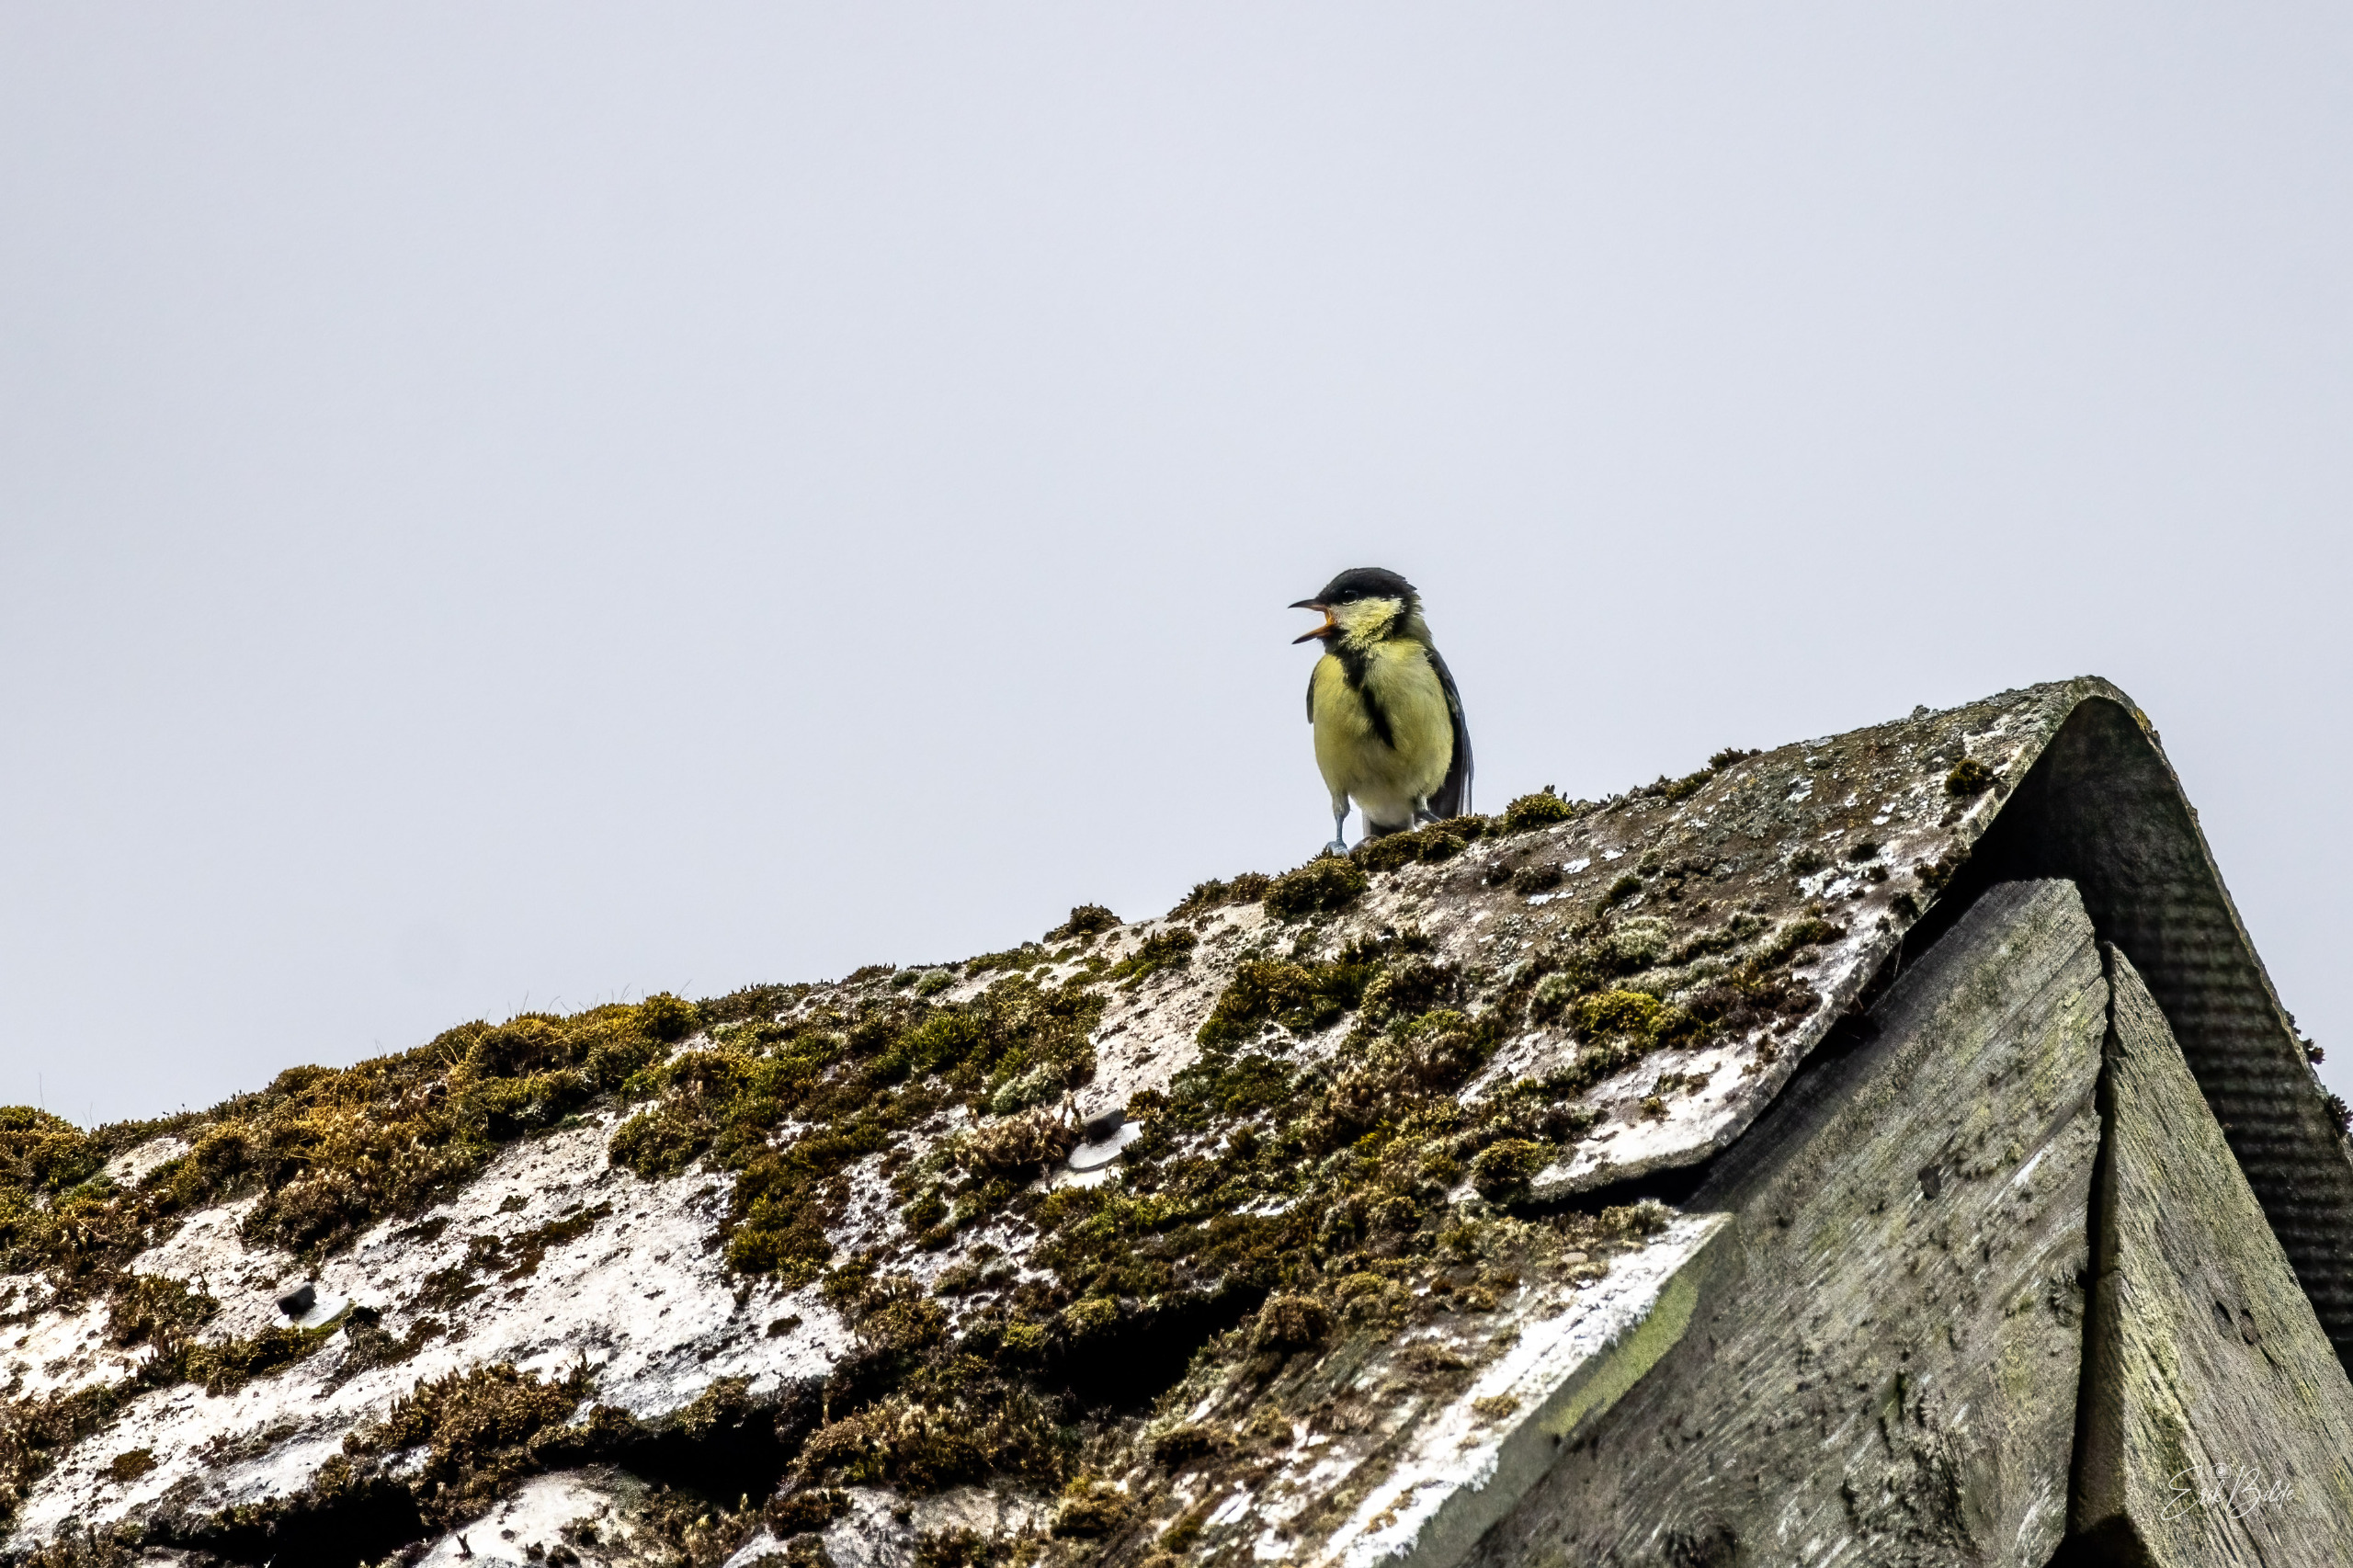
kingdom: Animalia
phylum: Chordata
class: Aves
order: Passeriformes
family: Paridae
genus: Parus
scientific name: Parus major
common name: Musvit
